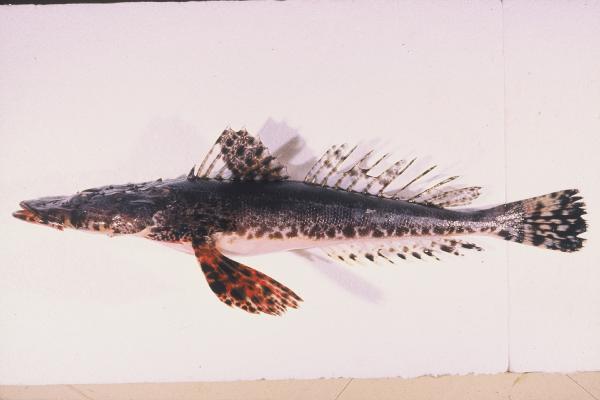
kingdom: Animalia
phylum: Chordata
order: Scorpaeniformes
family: Platycephalidae
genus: Papilloculiceps
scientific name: Papilloculiceps longiceps
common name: Tentacled flathead
